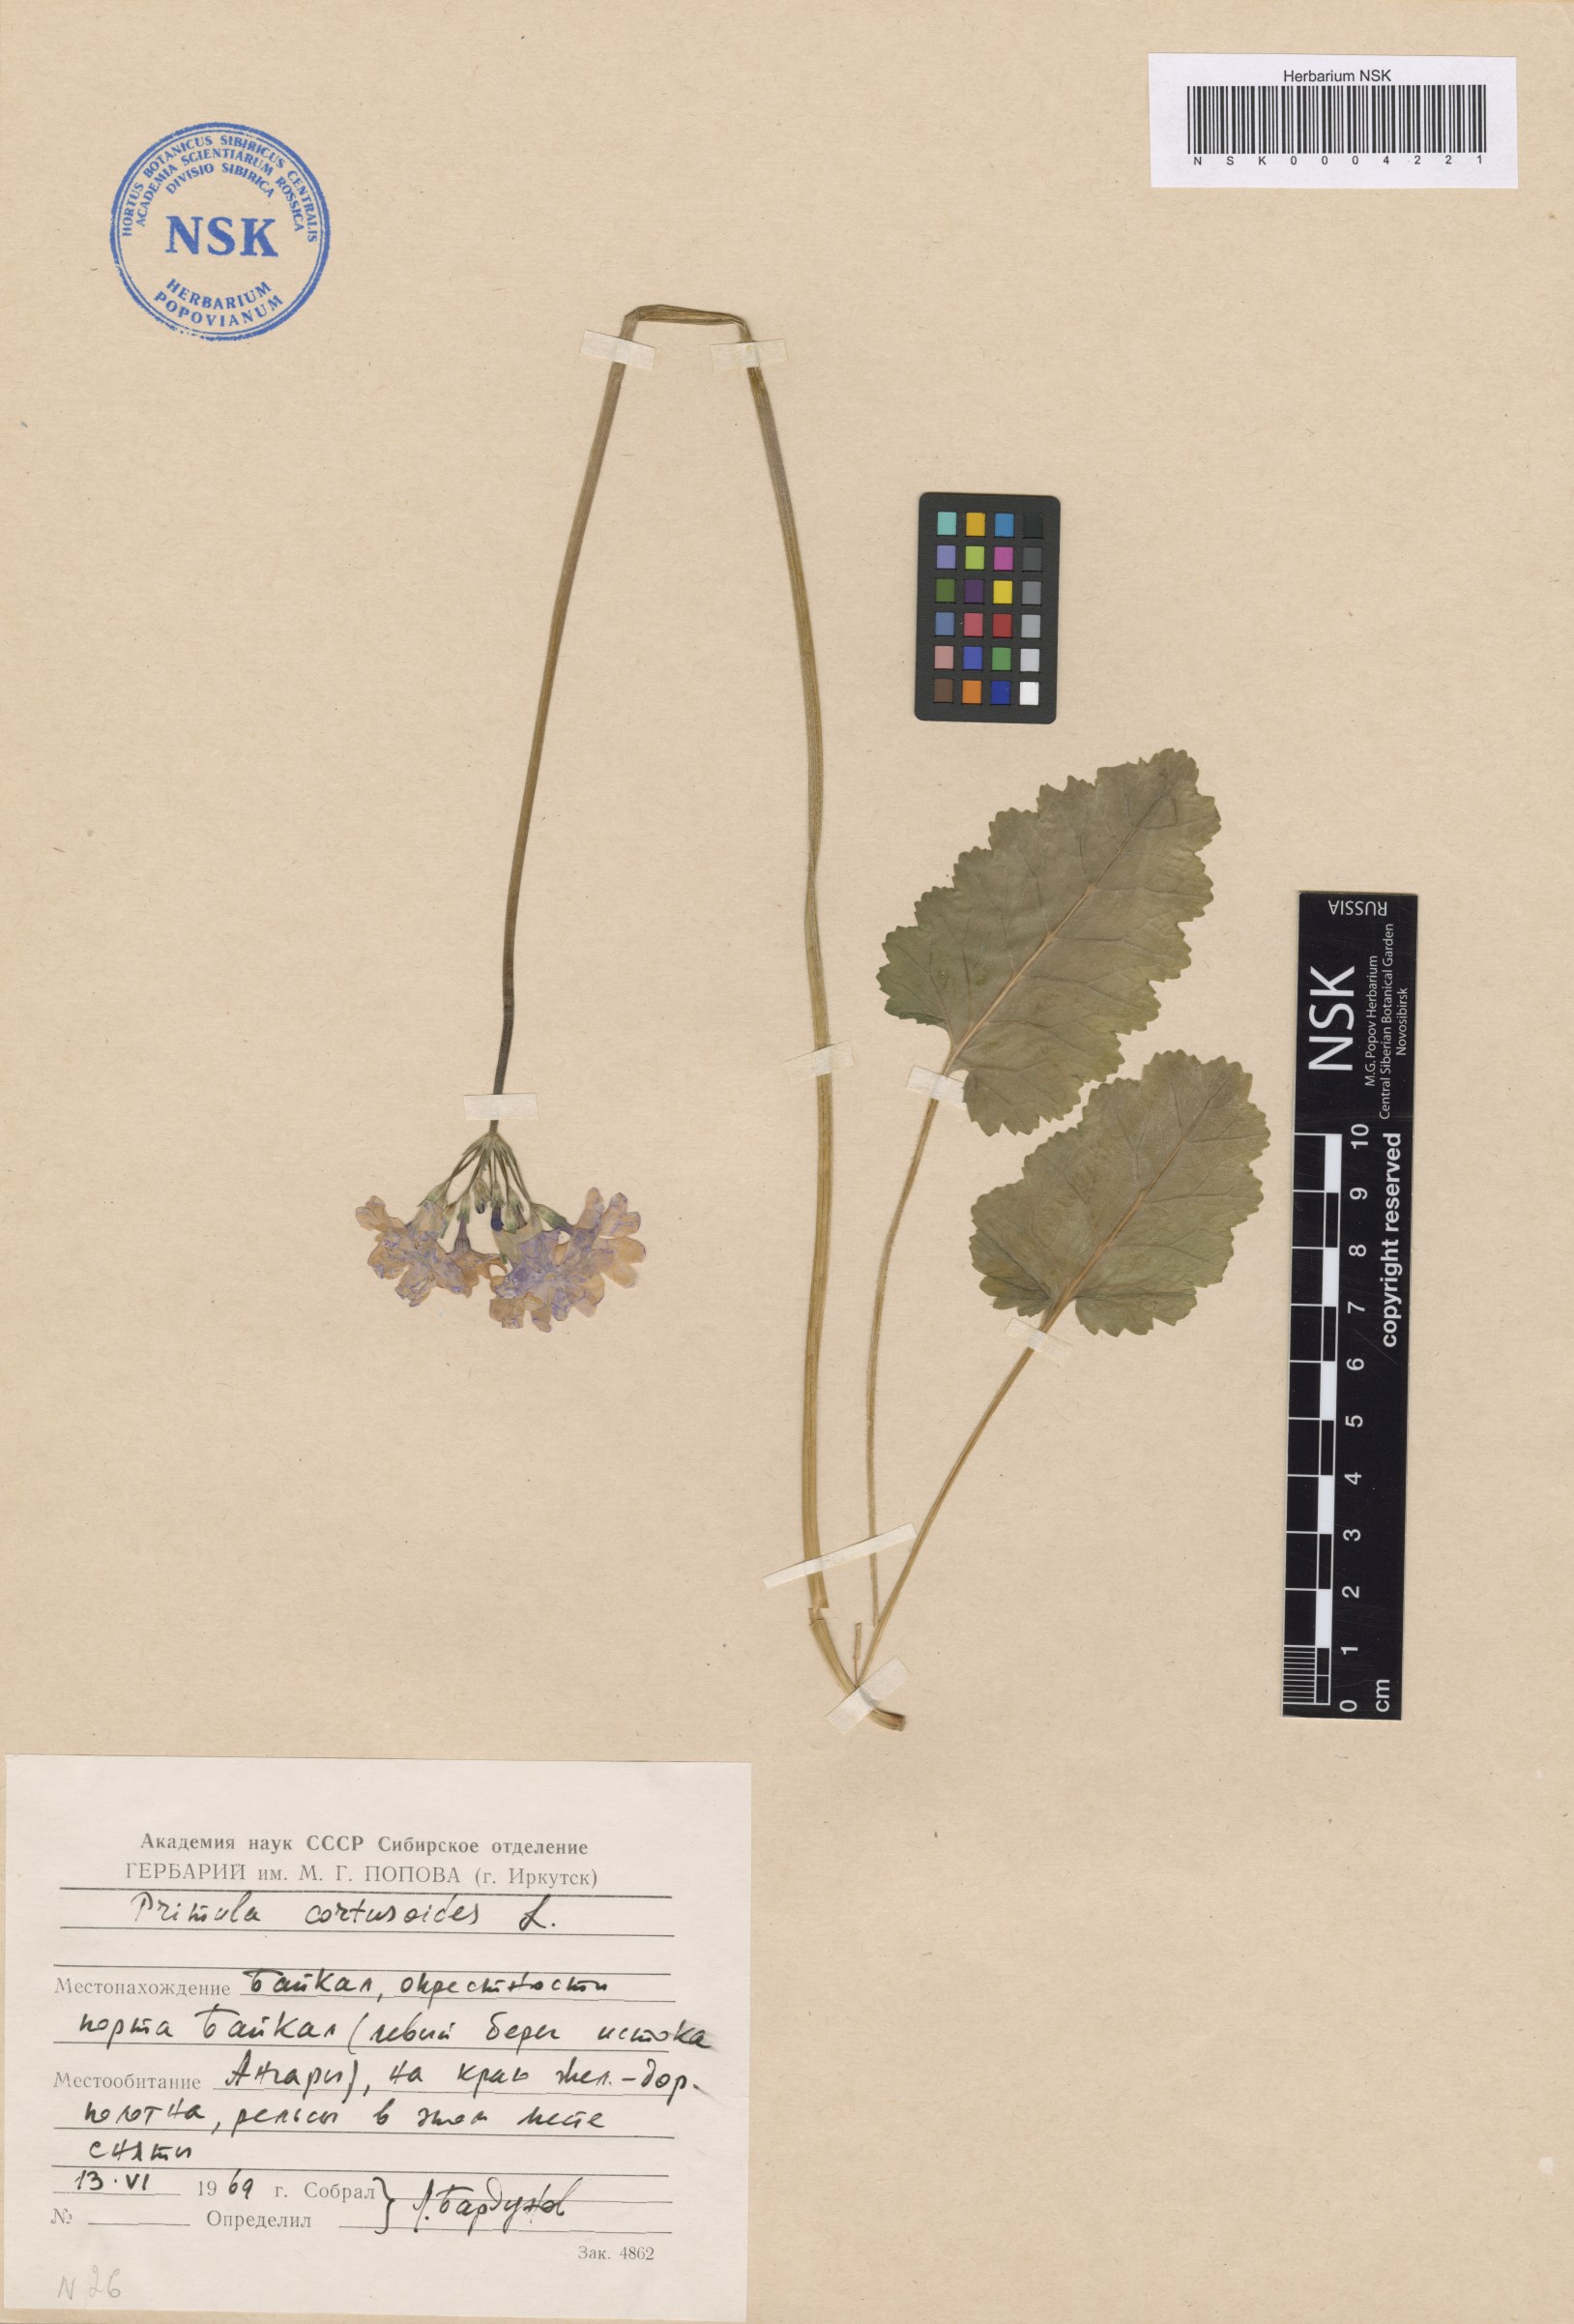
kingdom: Plantae
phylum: Tracheophyta
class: Magnoliopsida
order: Ericales
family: Primulaceae
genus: Primula
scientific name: Primula cortusoides
